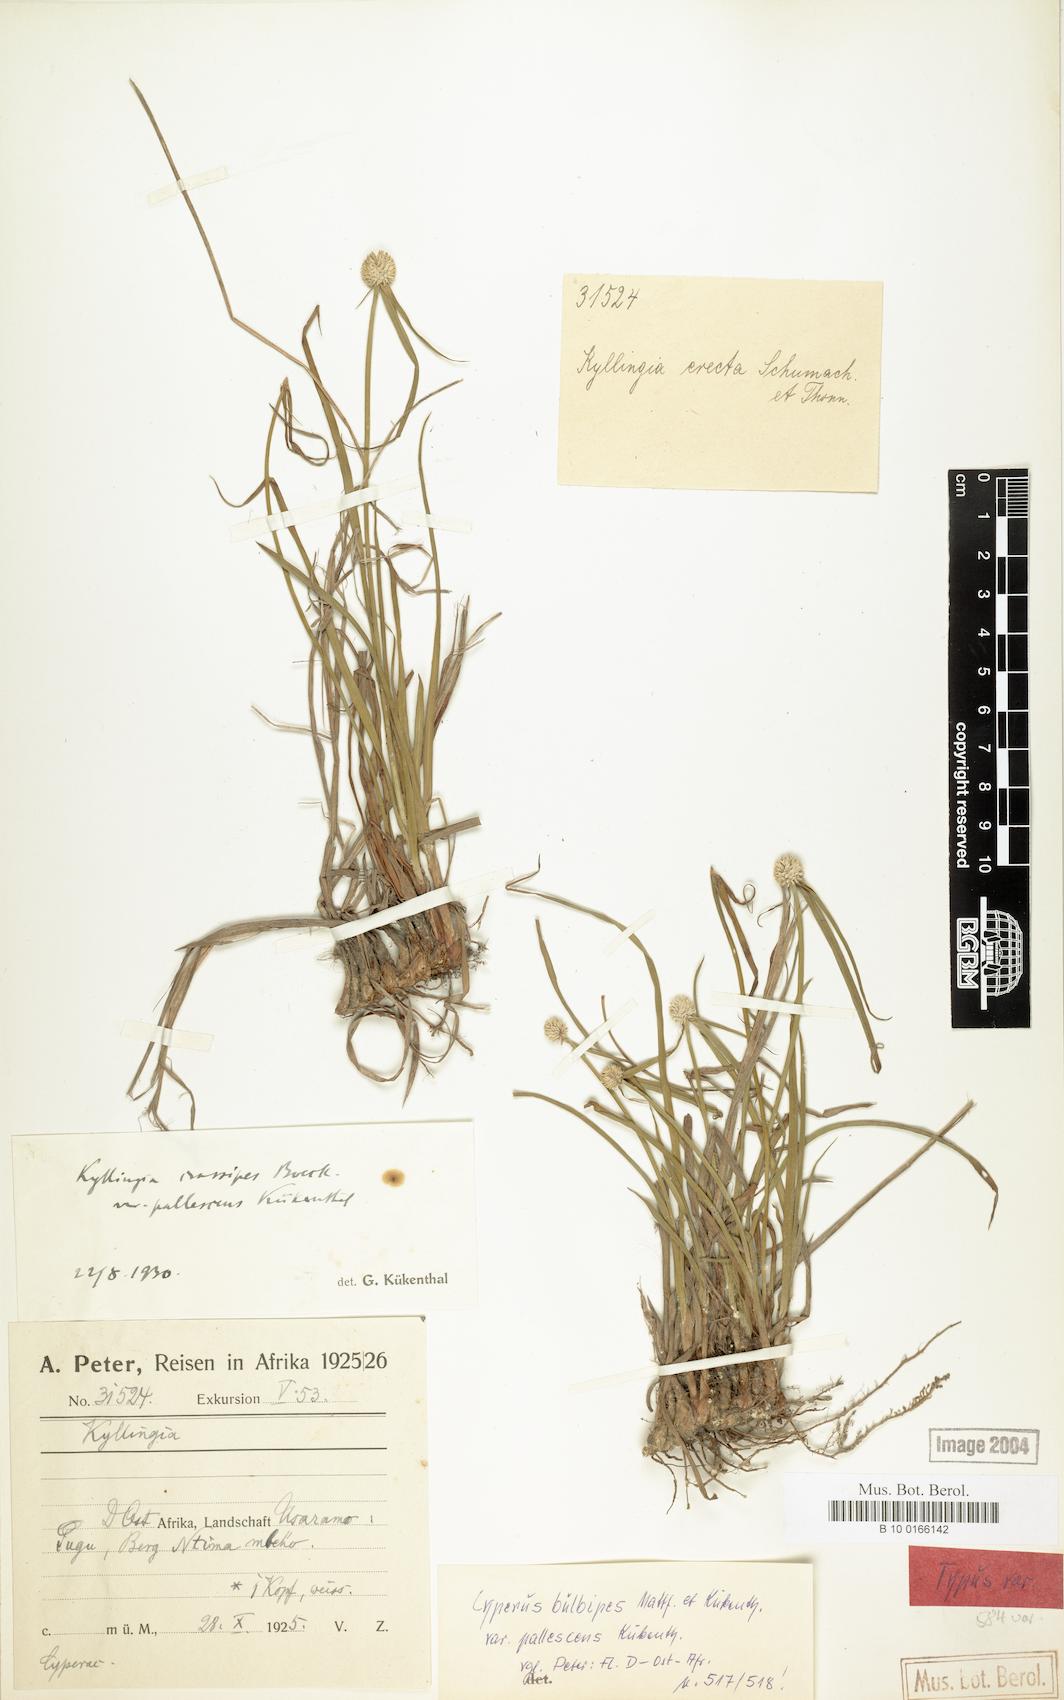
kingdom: Plantae
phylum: Tracheophyta
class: Liliopsida
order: Poales
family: Cyperaceae
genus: Cyperus
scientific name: Cyperus bulbipes
